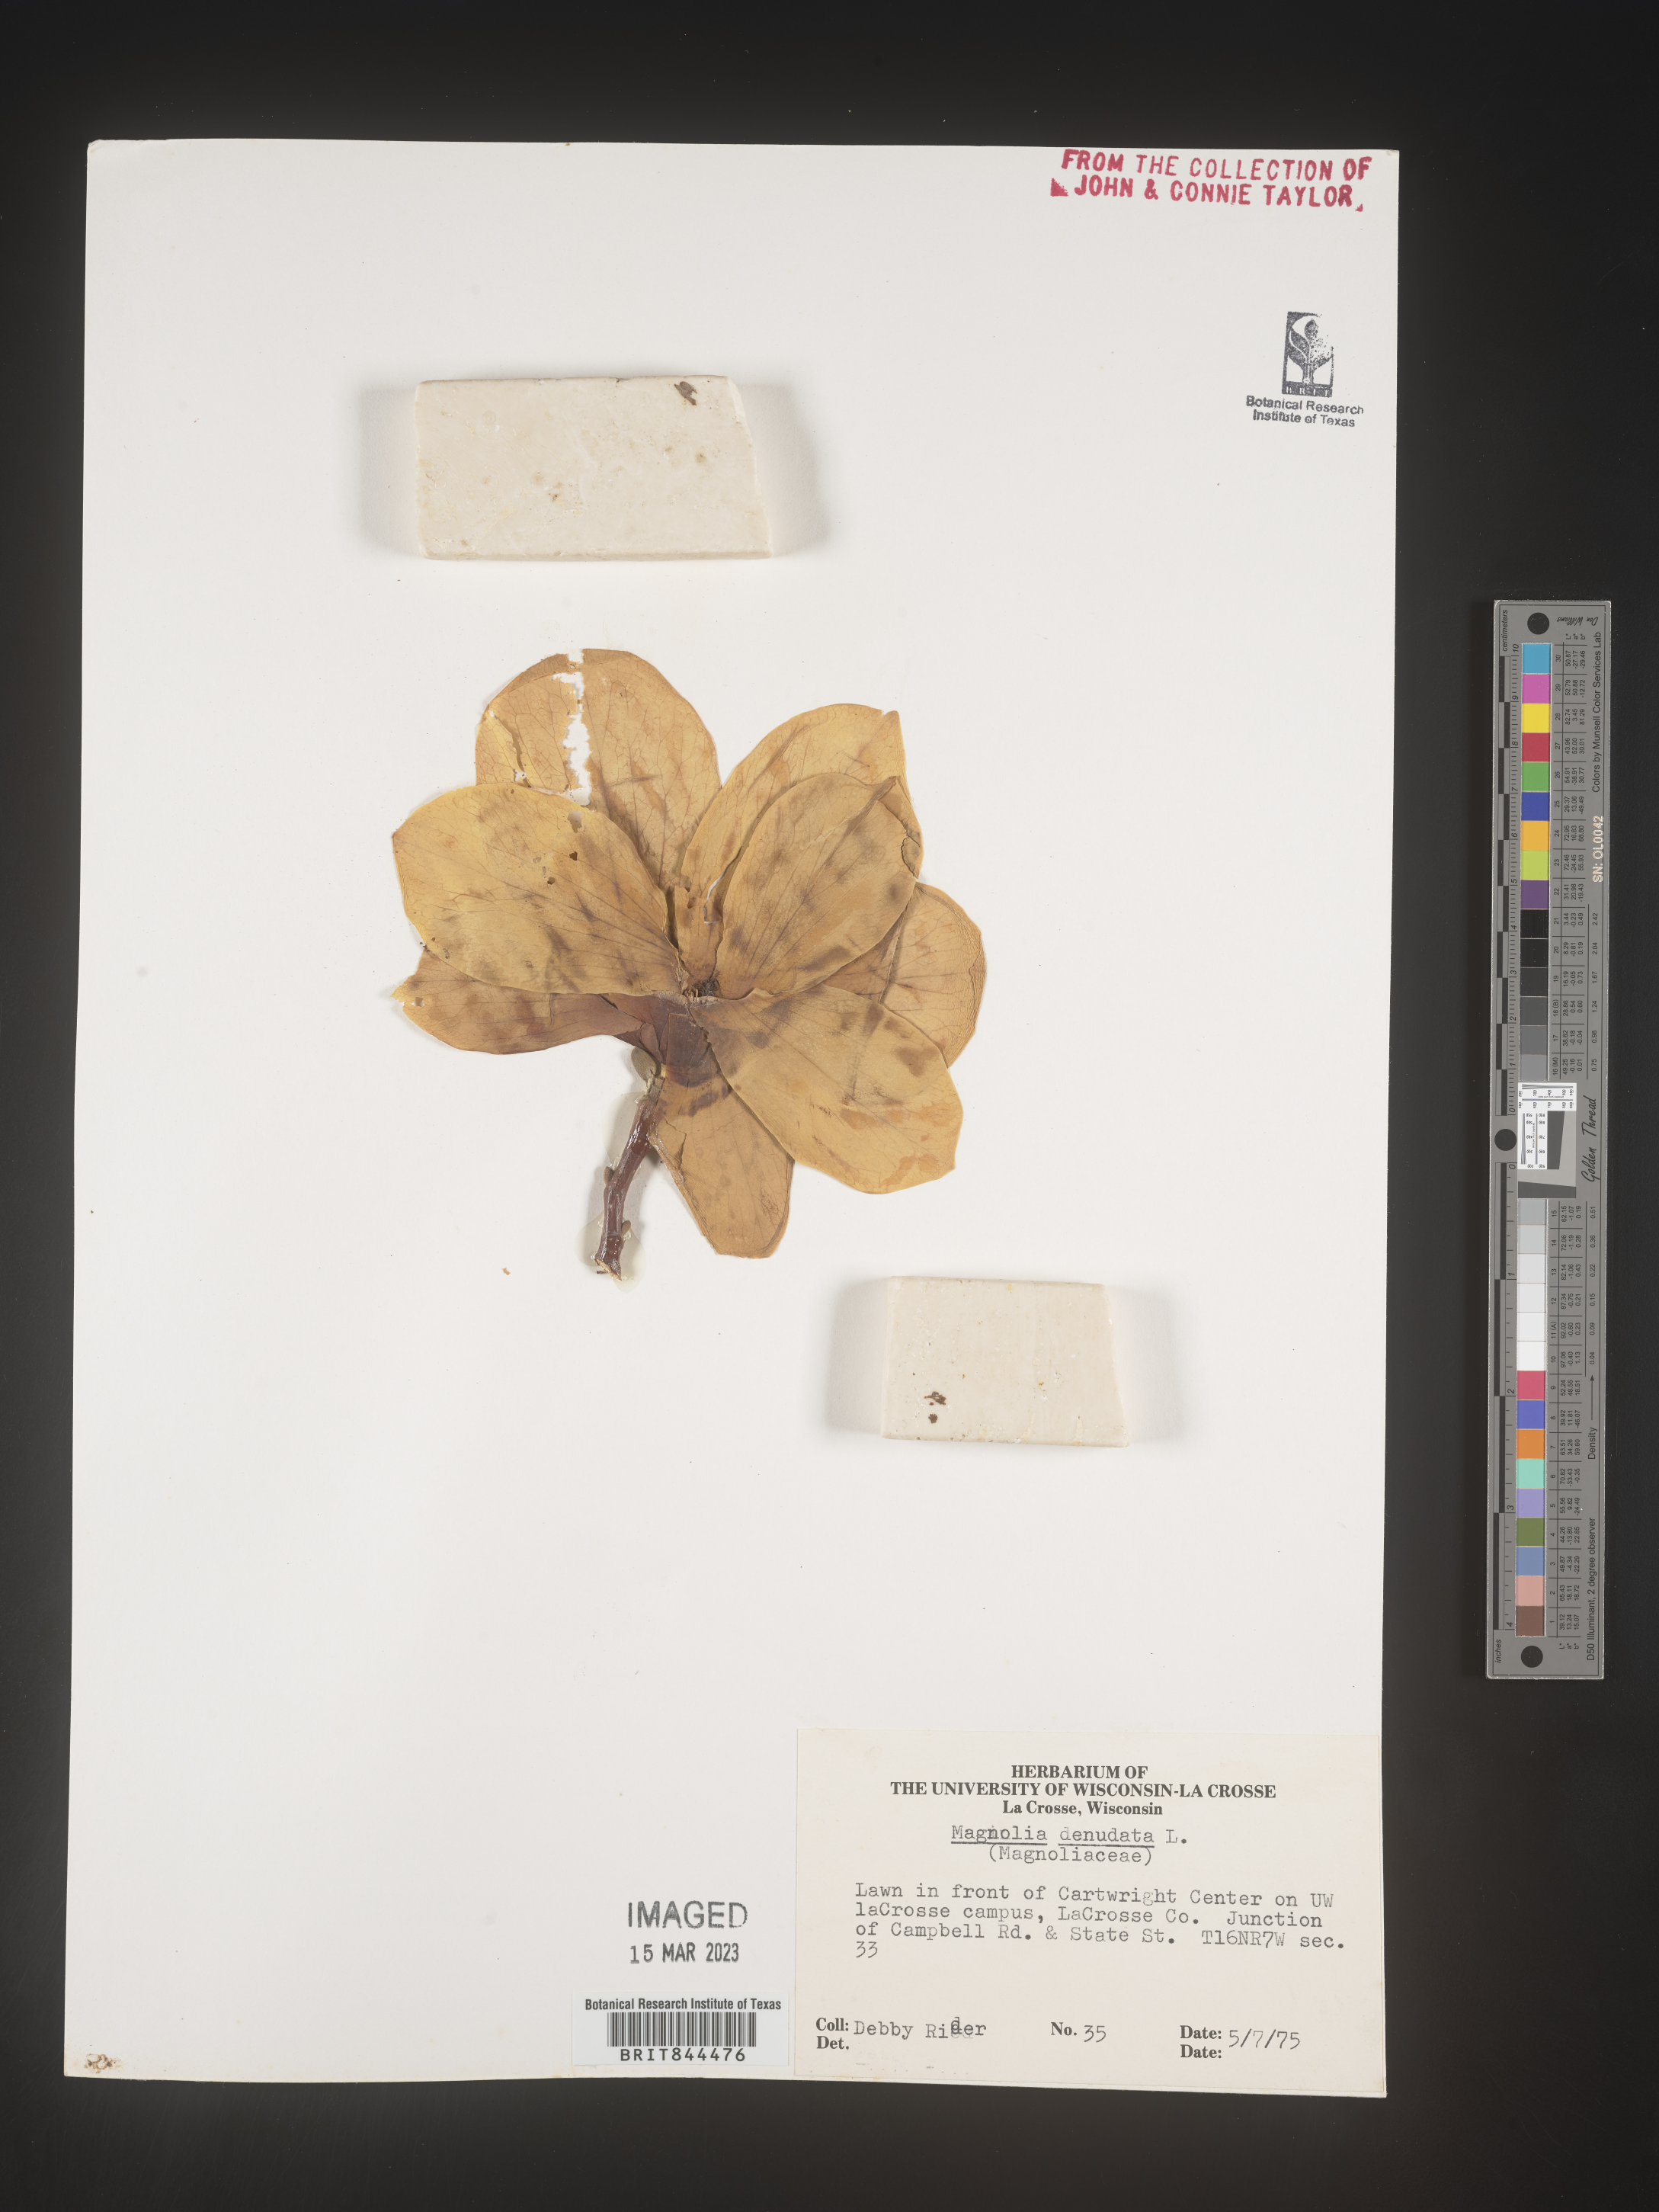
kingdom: Plantae
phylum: Tracheophyta
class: Magnoliopsida
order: Magnoliales
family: Magnoliaceae
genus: Magnolia
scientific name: Magnolia
